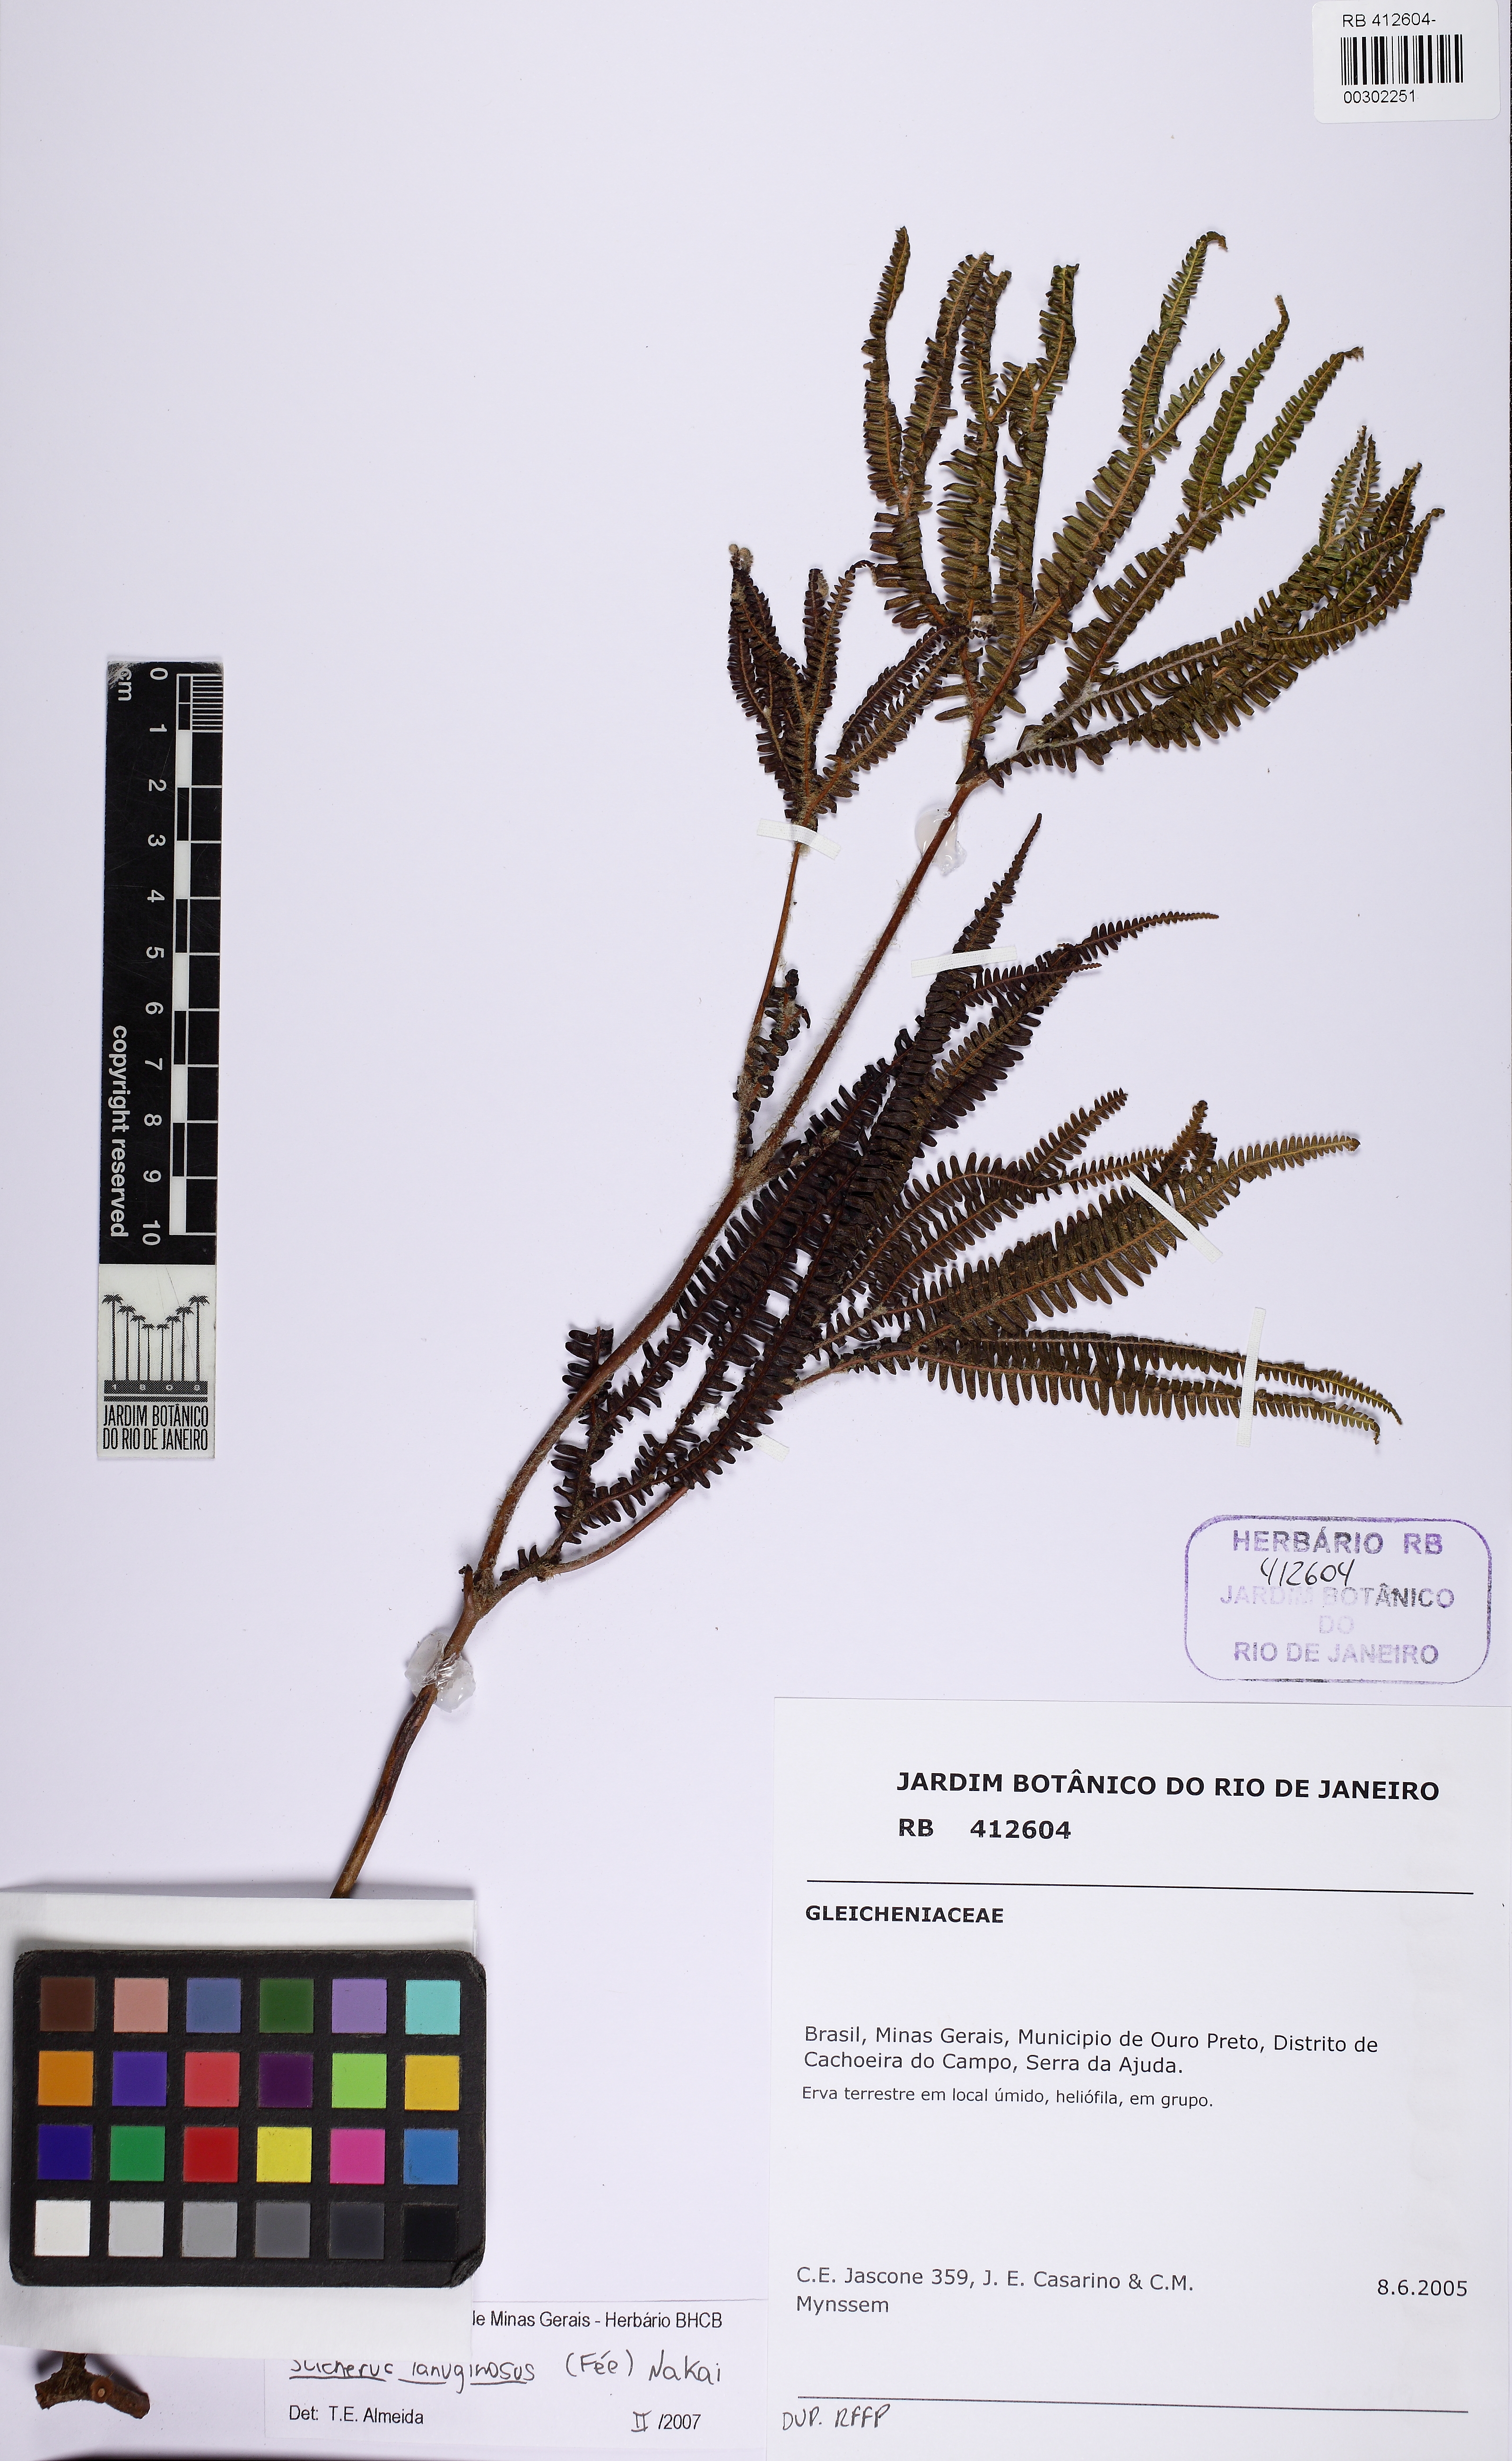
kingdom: Plantae
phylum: Tracheophyta
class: Polypodiopsida
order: Gleicheniales
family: Gleicheniaceae
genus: Sticherus
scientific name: Sticherus lanuginosus
